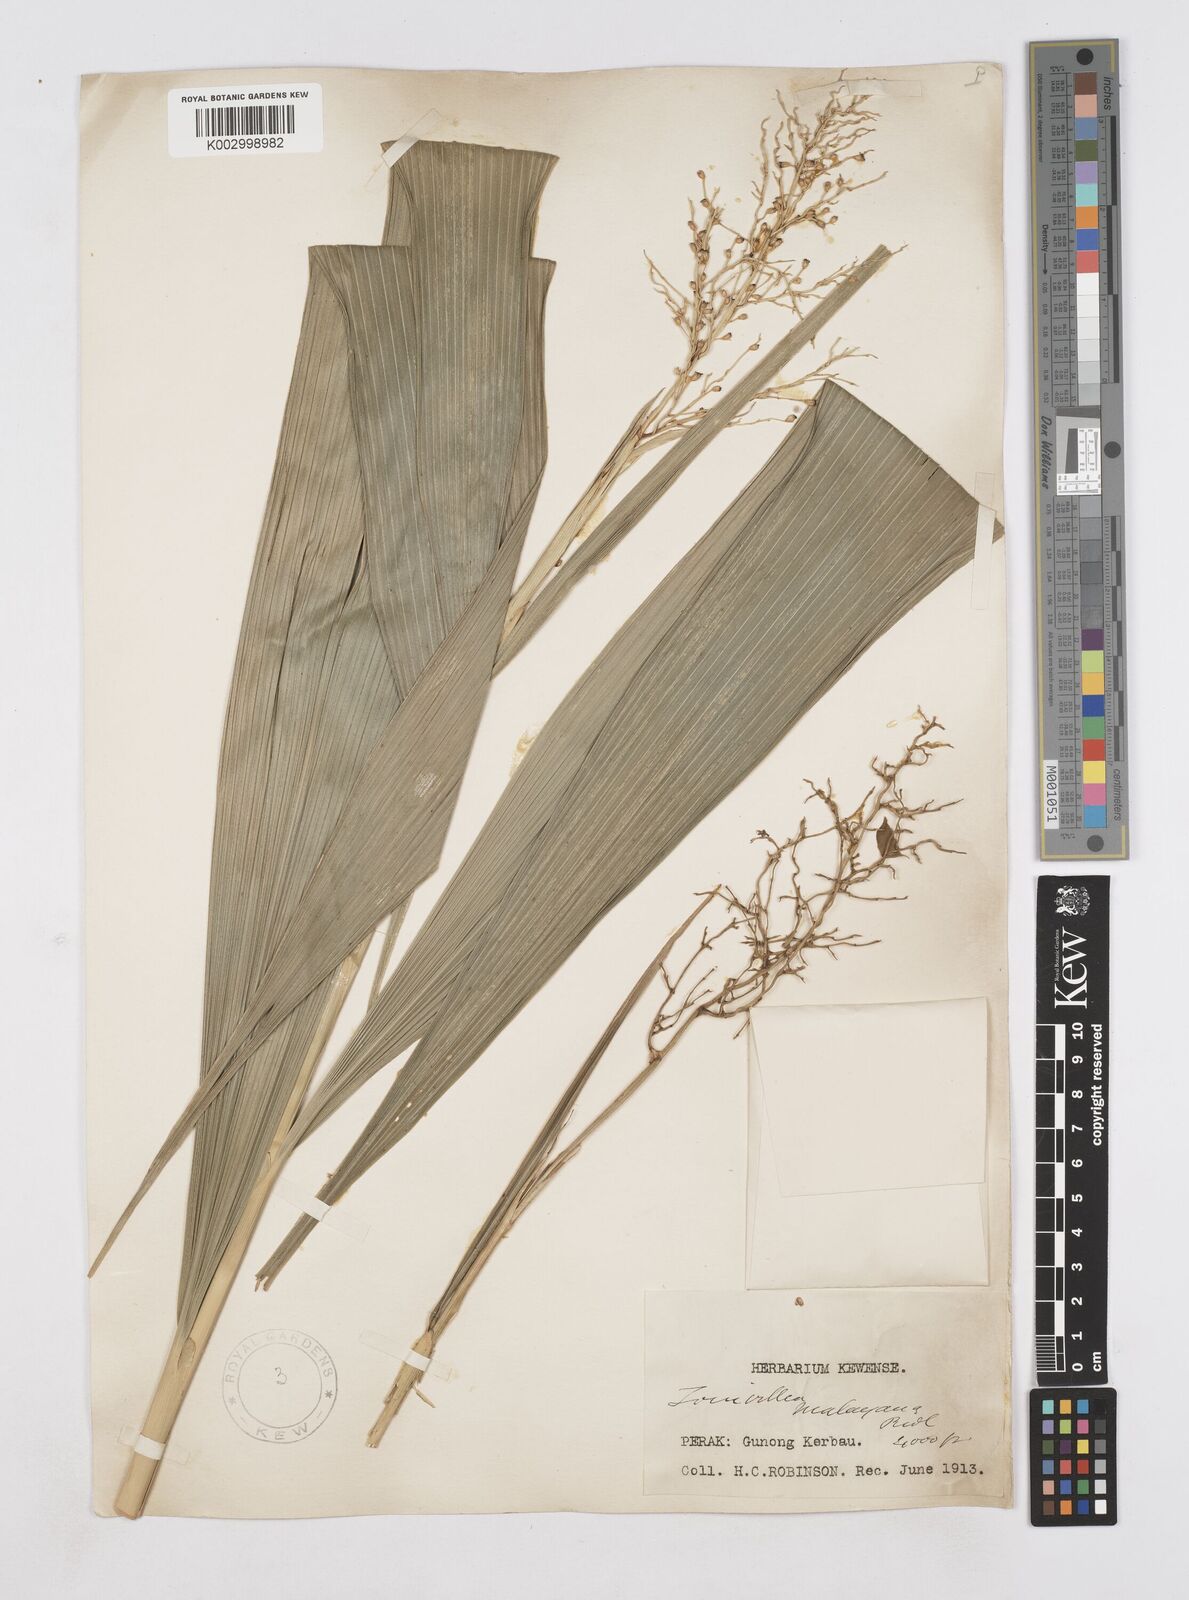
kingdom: Plantae
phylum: Tracheophyta
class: Liliopsida
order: Poales
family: Joinvilleaceae
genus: Joinvillea
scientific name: Joinvillea borneensis
